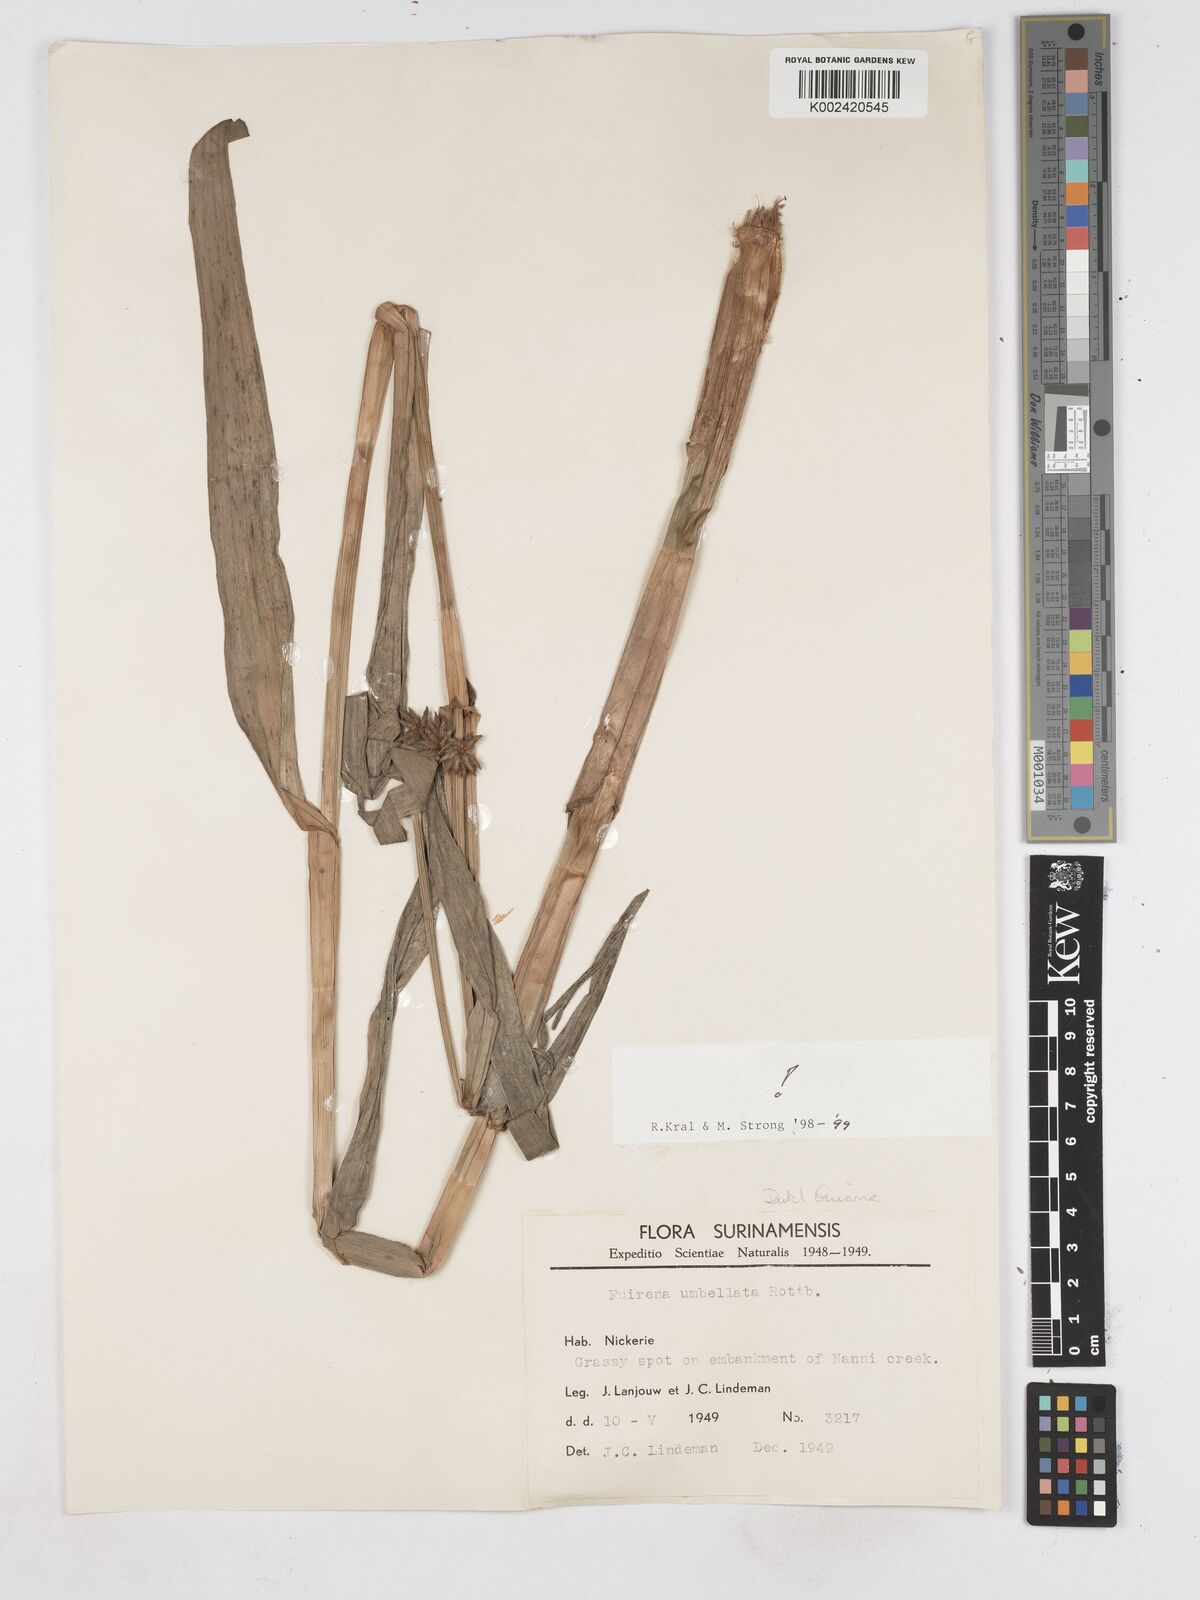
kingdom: Plantae
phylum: Tracheophyta
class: Liliopsida
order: Poales
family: Cyperaceae
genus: Fuirena
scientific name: Fuirena umbellata
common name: Yefen
